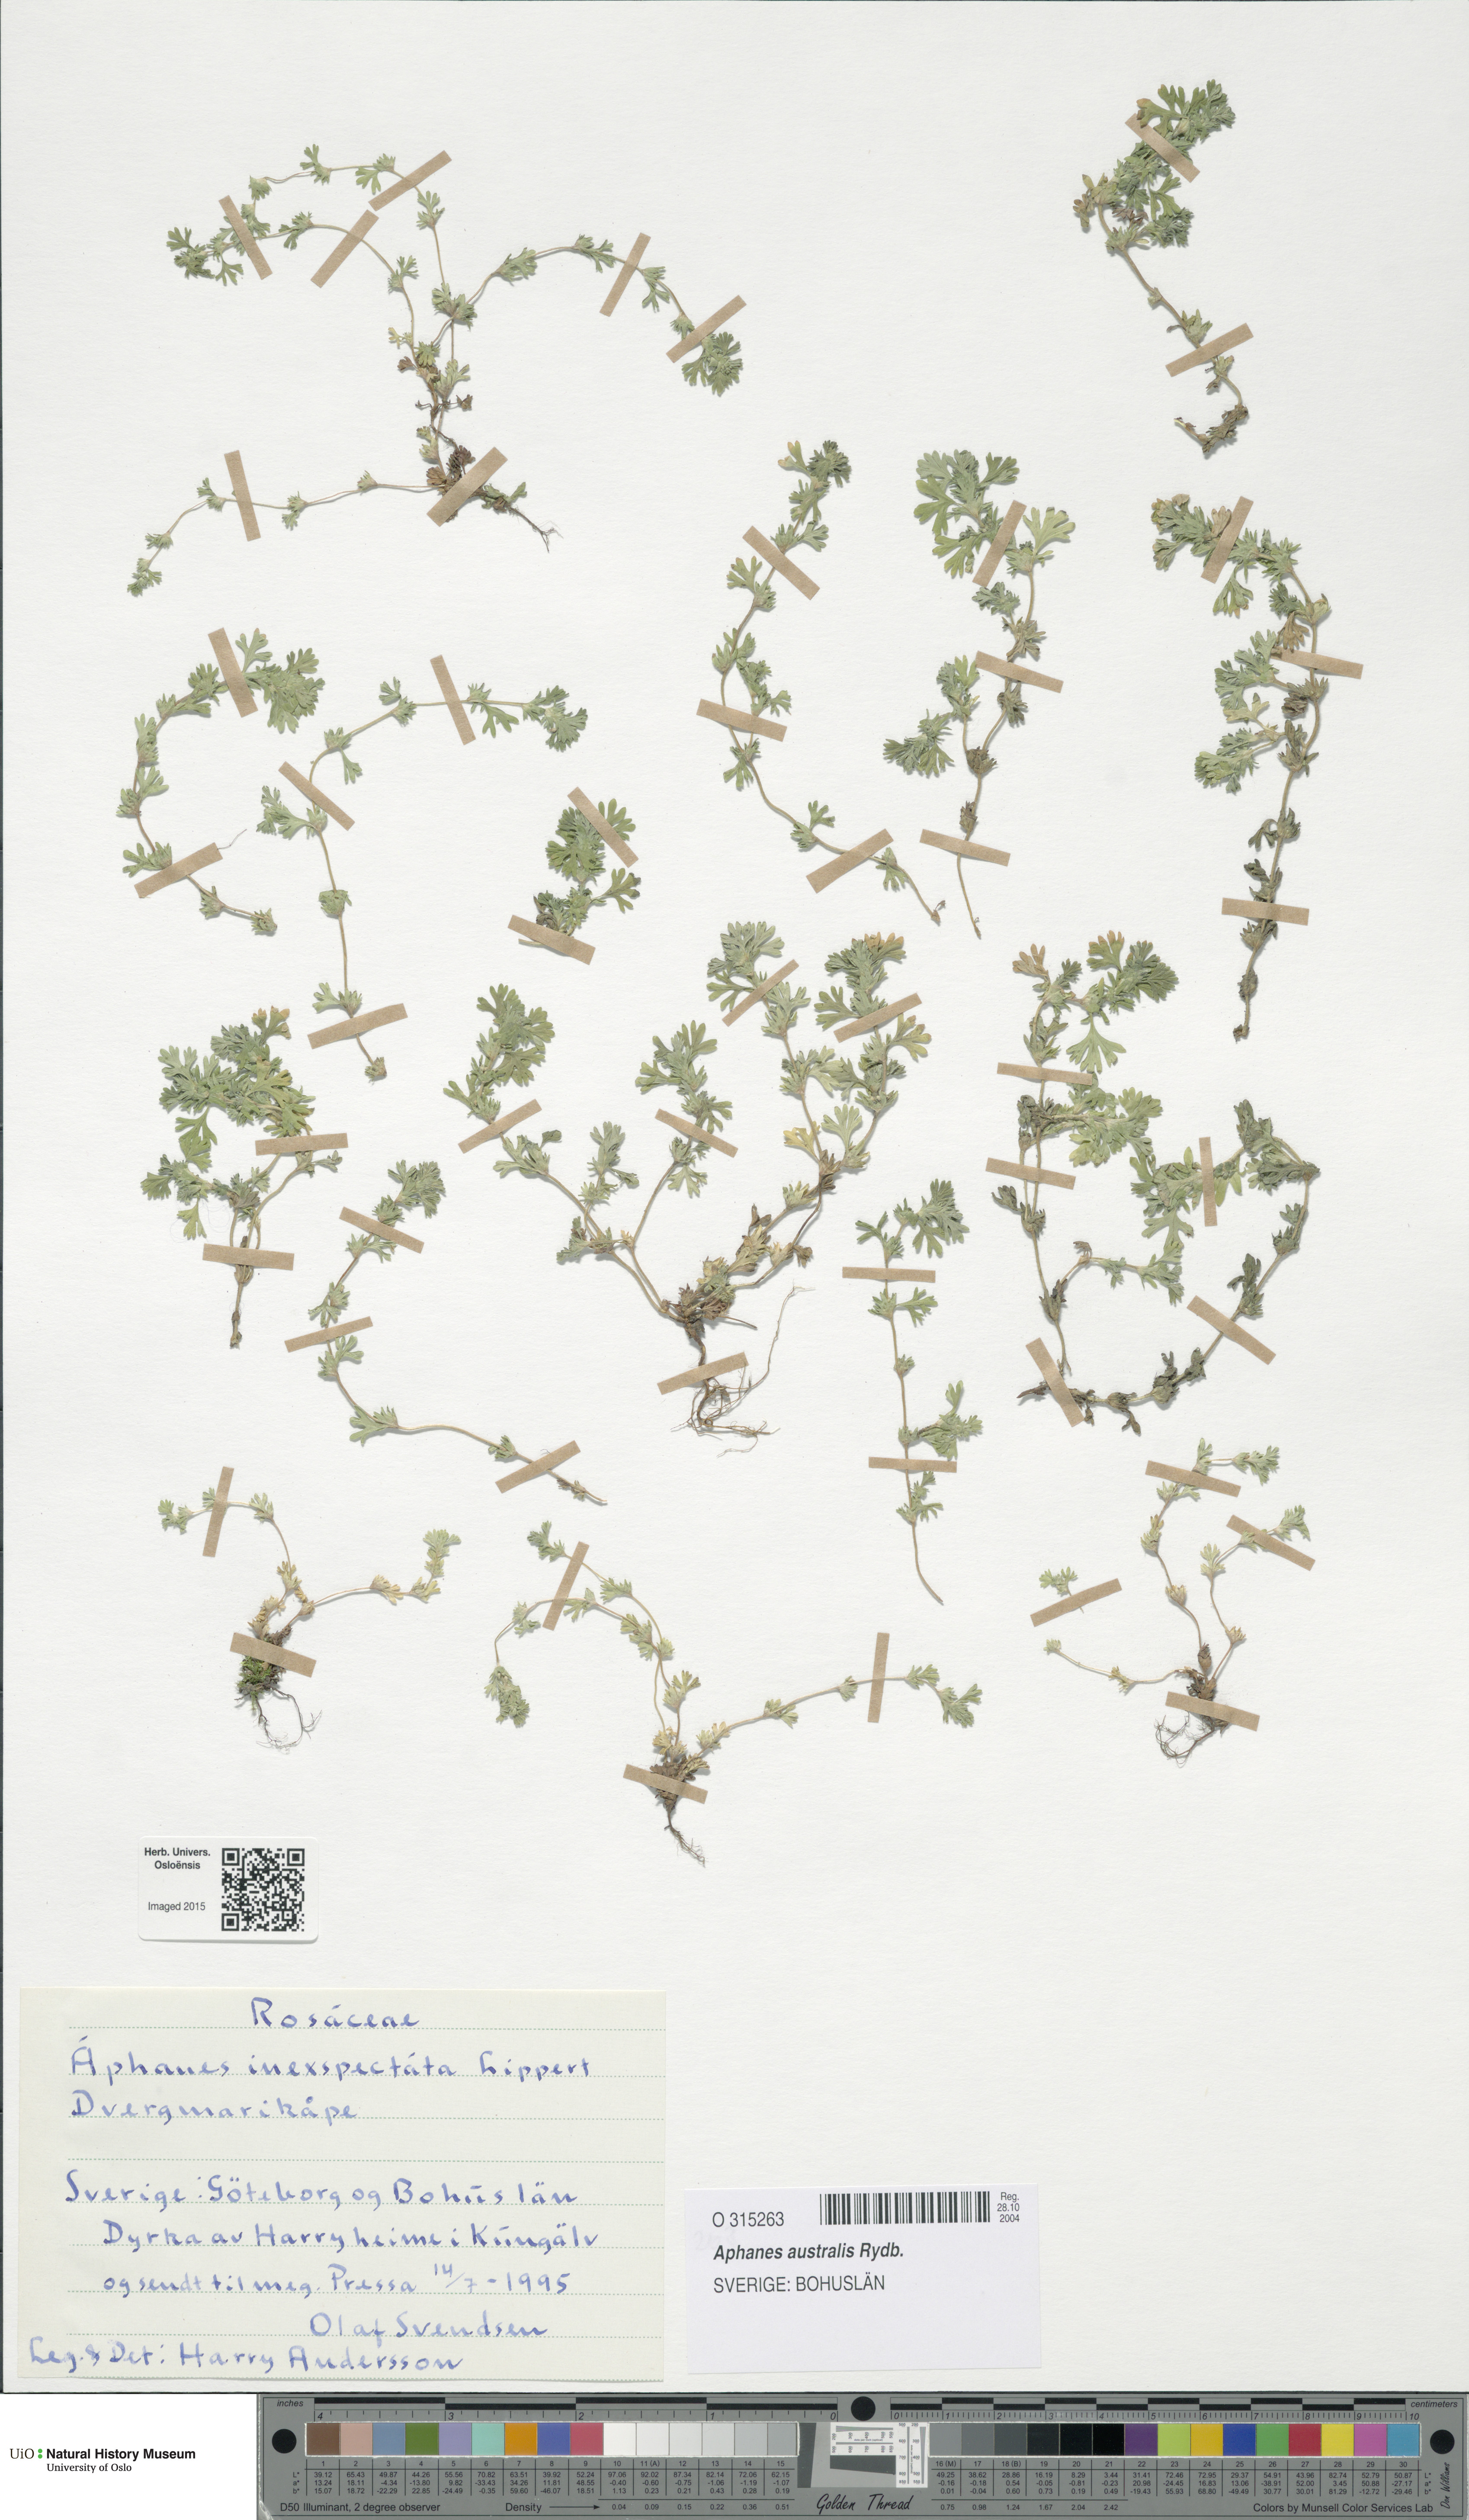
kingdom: Plantae
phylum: Tracheophyta
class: Magnoliopsida
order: Rosales
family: Rosaceae
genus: Aphanes
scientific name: Aphanes australis
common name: Slender parsley-piert
